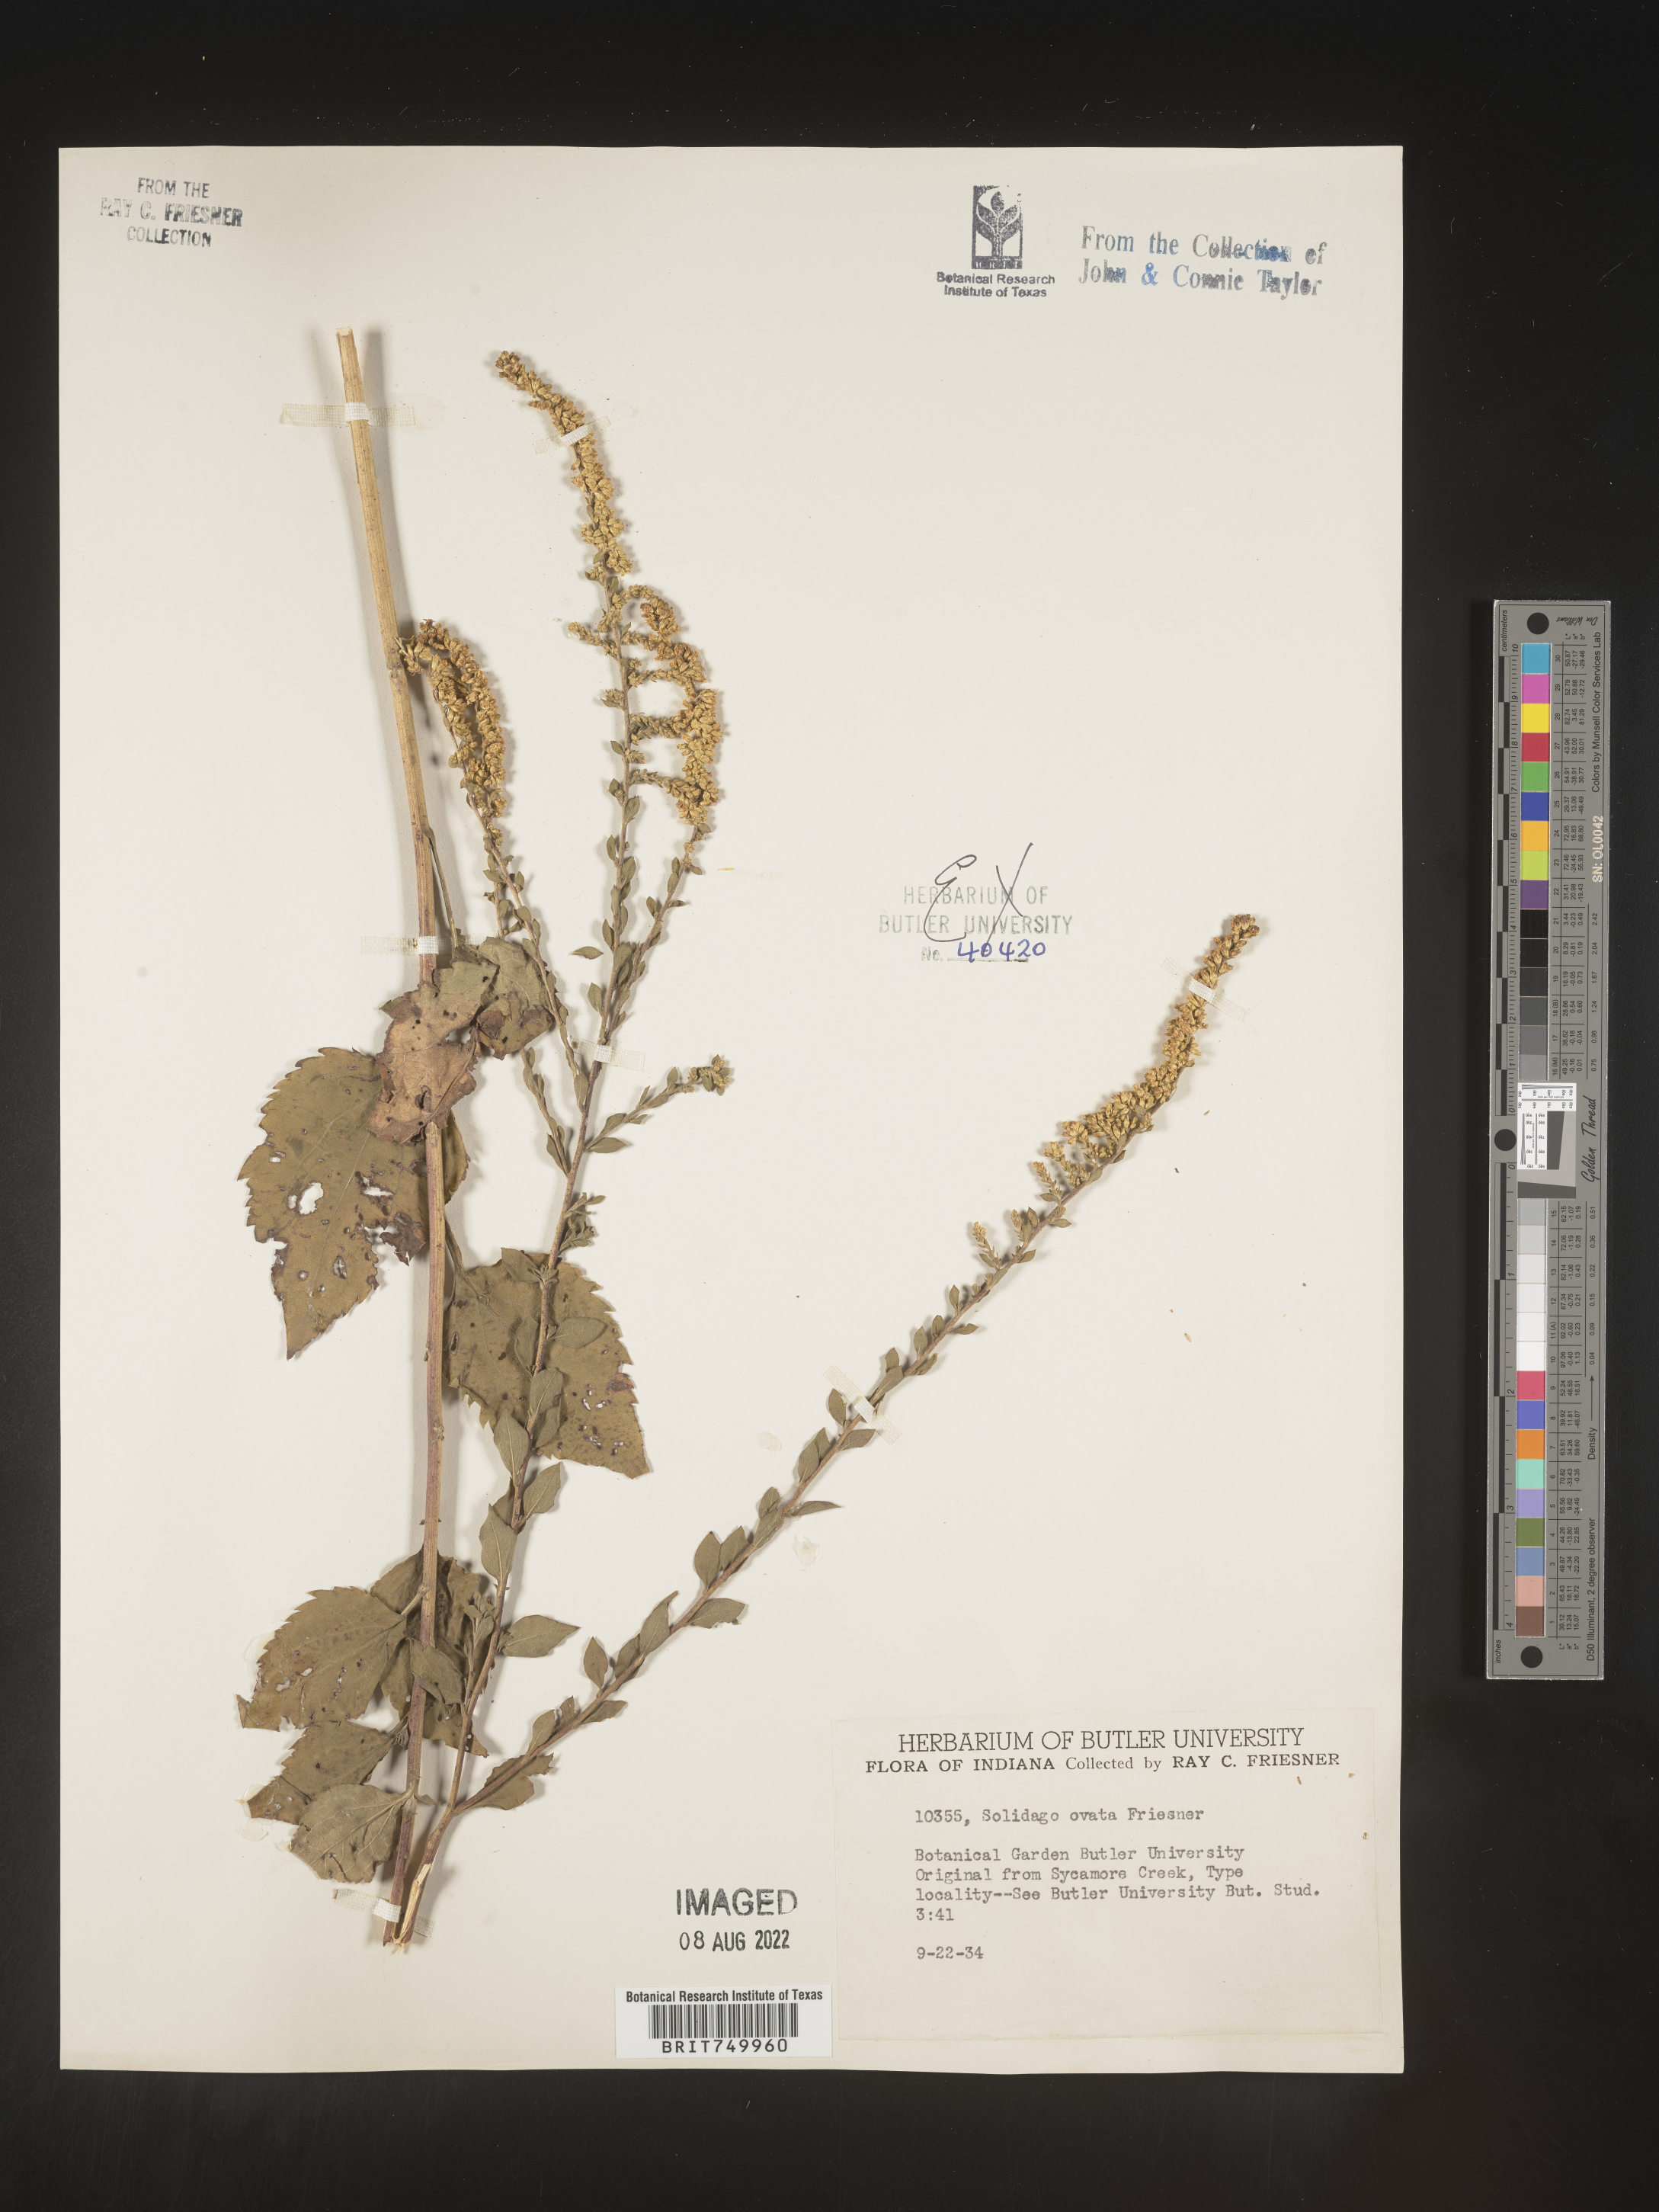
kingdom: Plantae
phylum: Tracheophyta
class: Magnoliopsida
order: Asterales
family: Asteraceae
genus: Solidago
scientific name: Solidago ulmifolia
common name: Elm-leaf goldenrod
